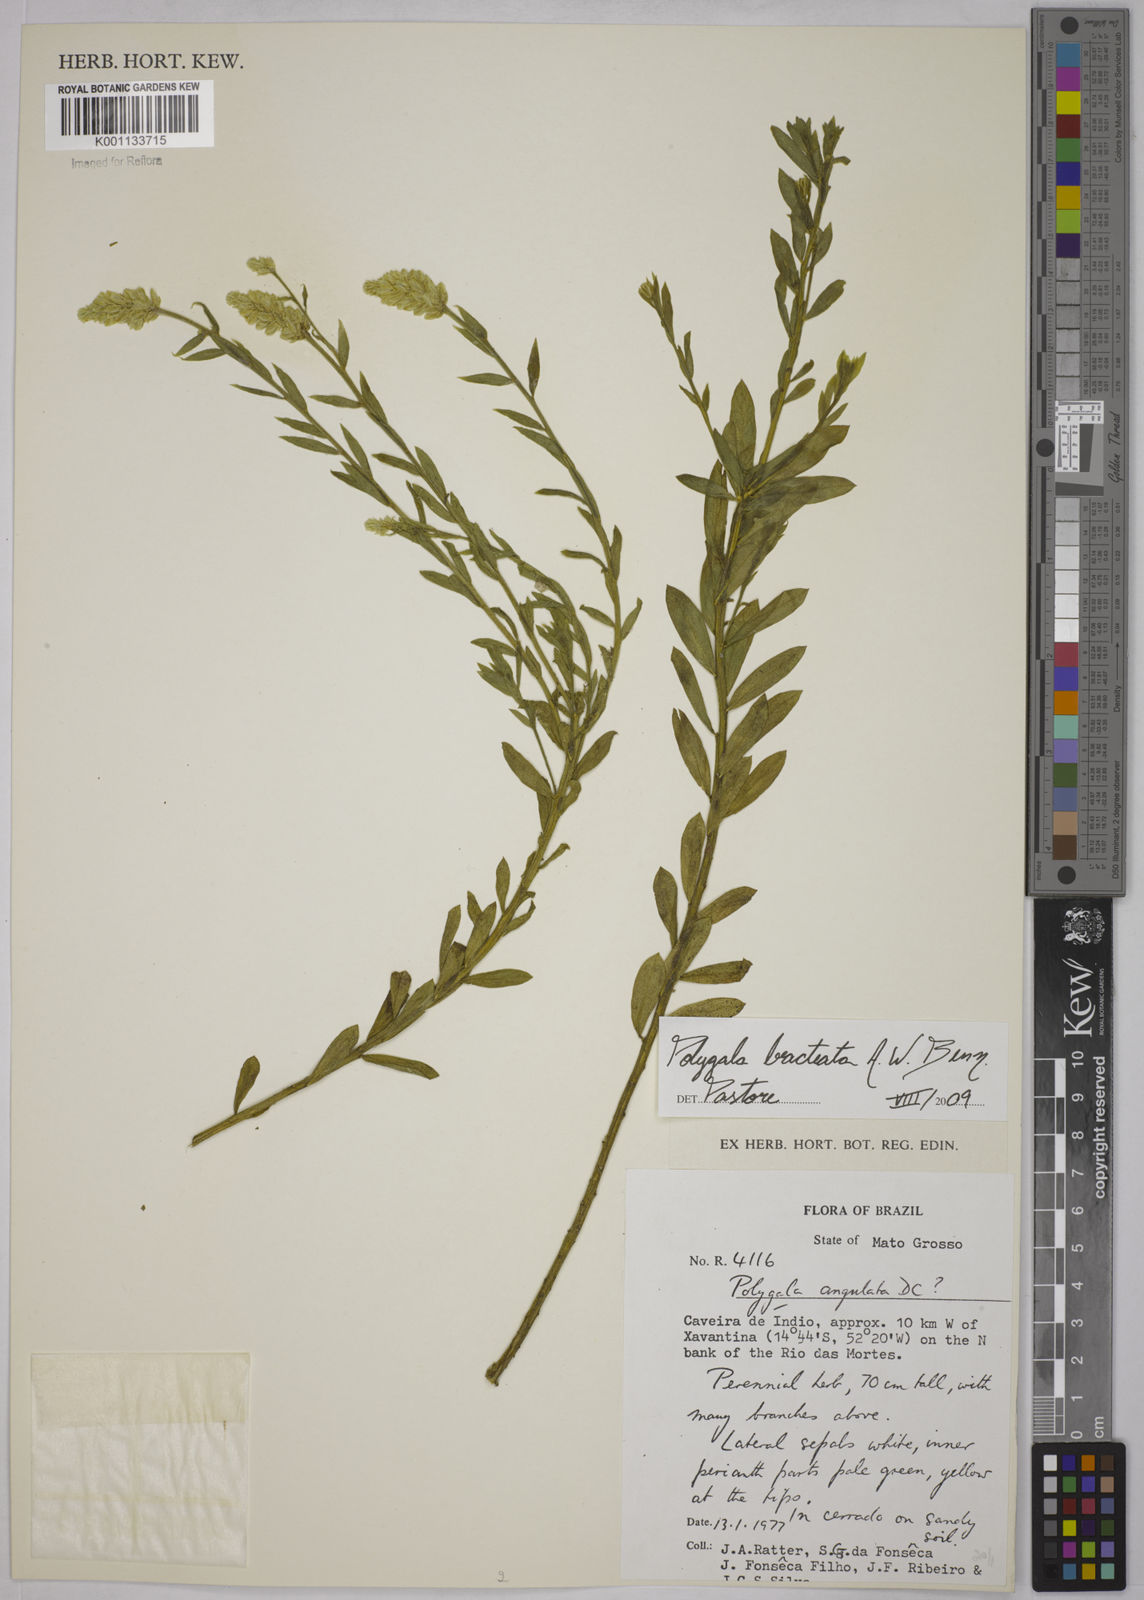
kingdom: Plantae
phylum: Tracheophyta
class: Magnoliopsida
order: Fabales
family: Polygalaceae
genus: Polygala
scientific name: Polygala irwinii
